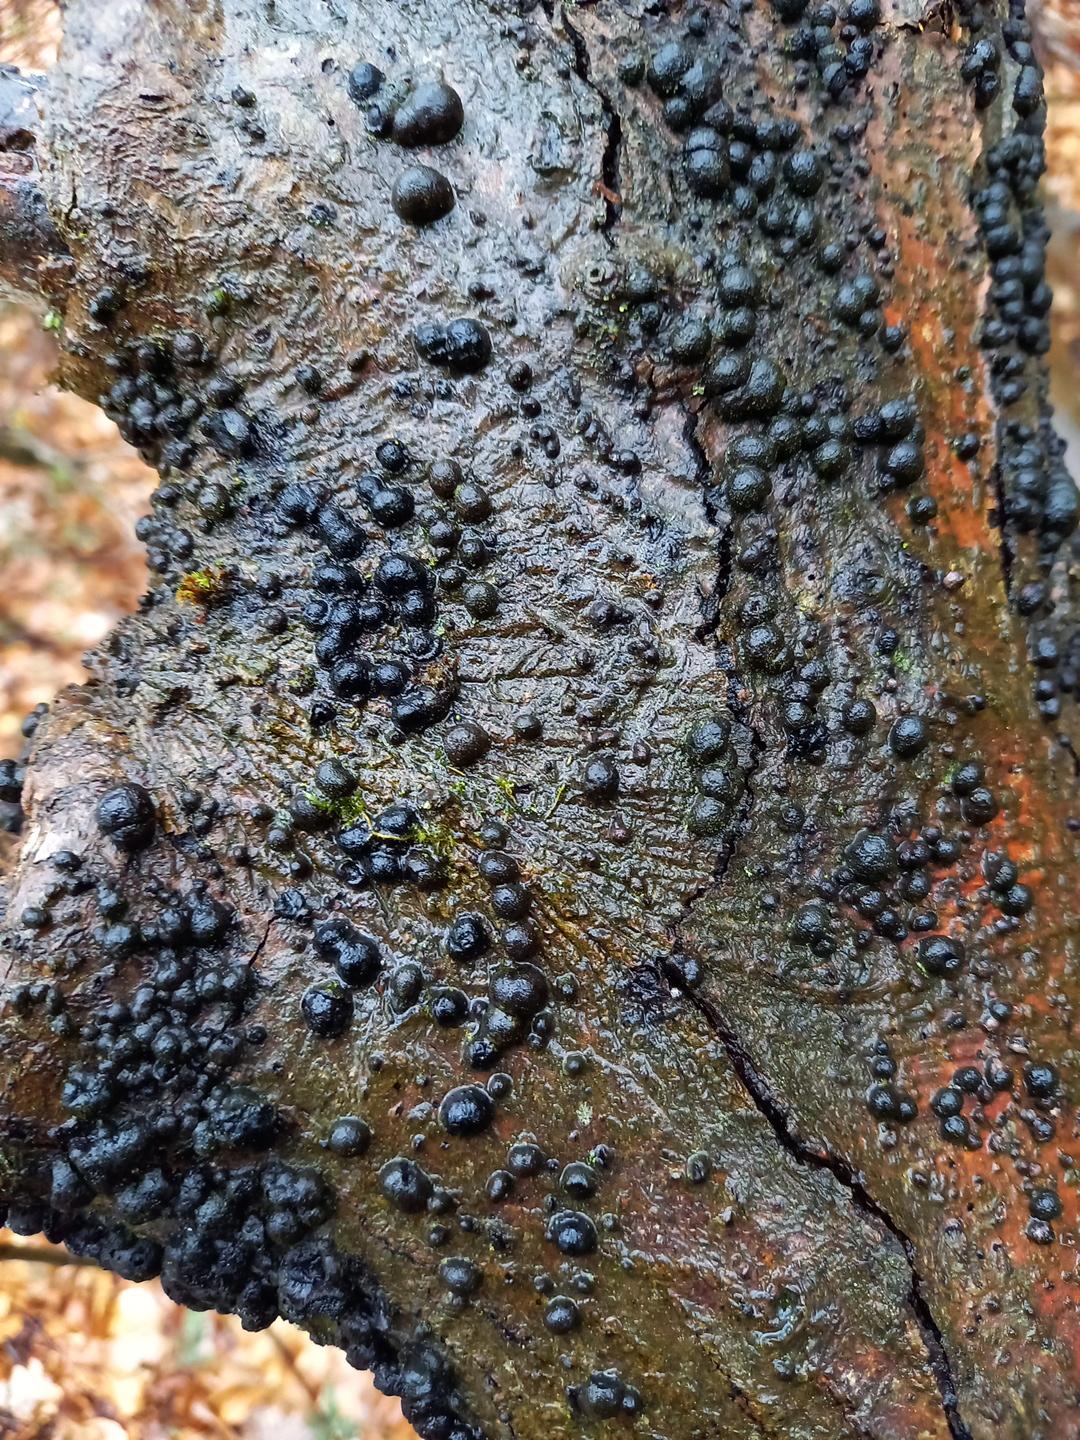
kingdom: Fungi
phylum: Ascomycota
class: Sordariomycetes
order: Xylariales
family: Hypoxylaceae
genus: Hypoxylon
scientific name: Hypoxylon fragiforme
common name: kuljordbær
